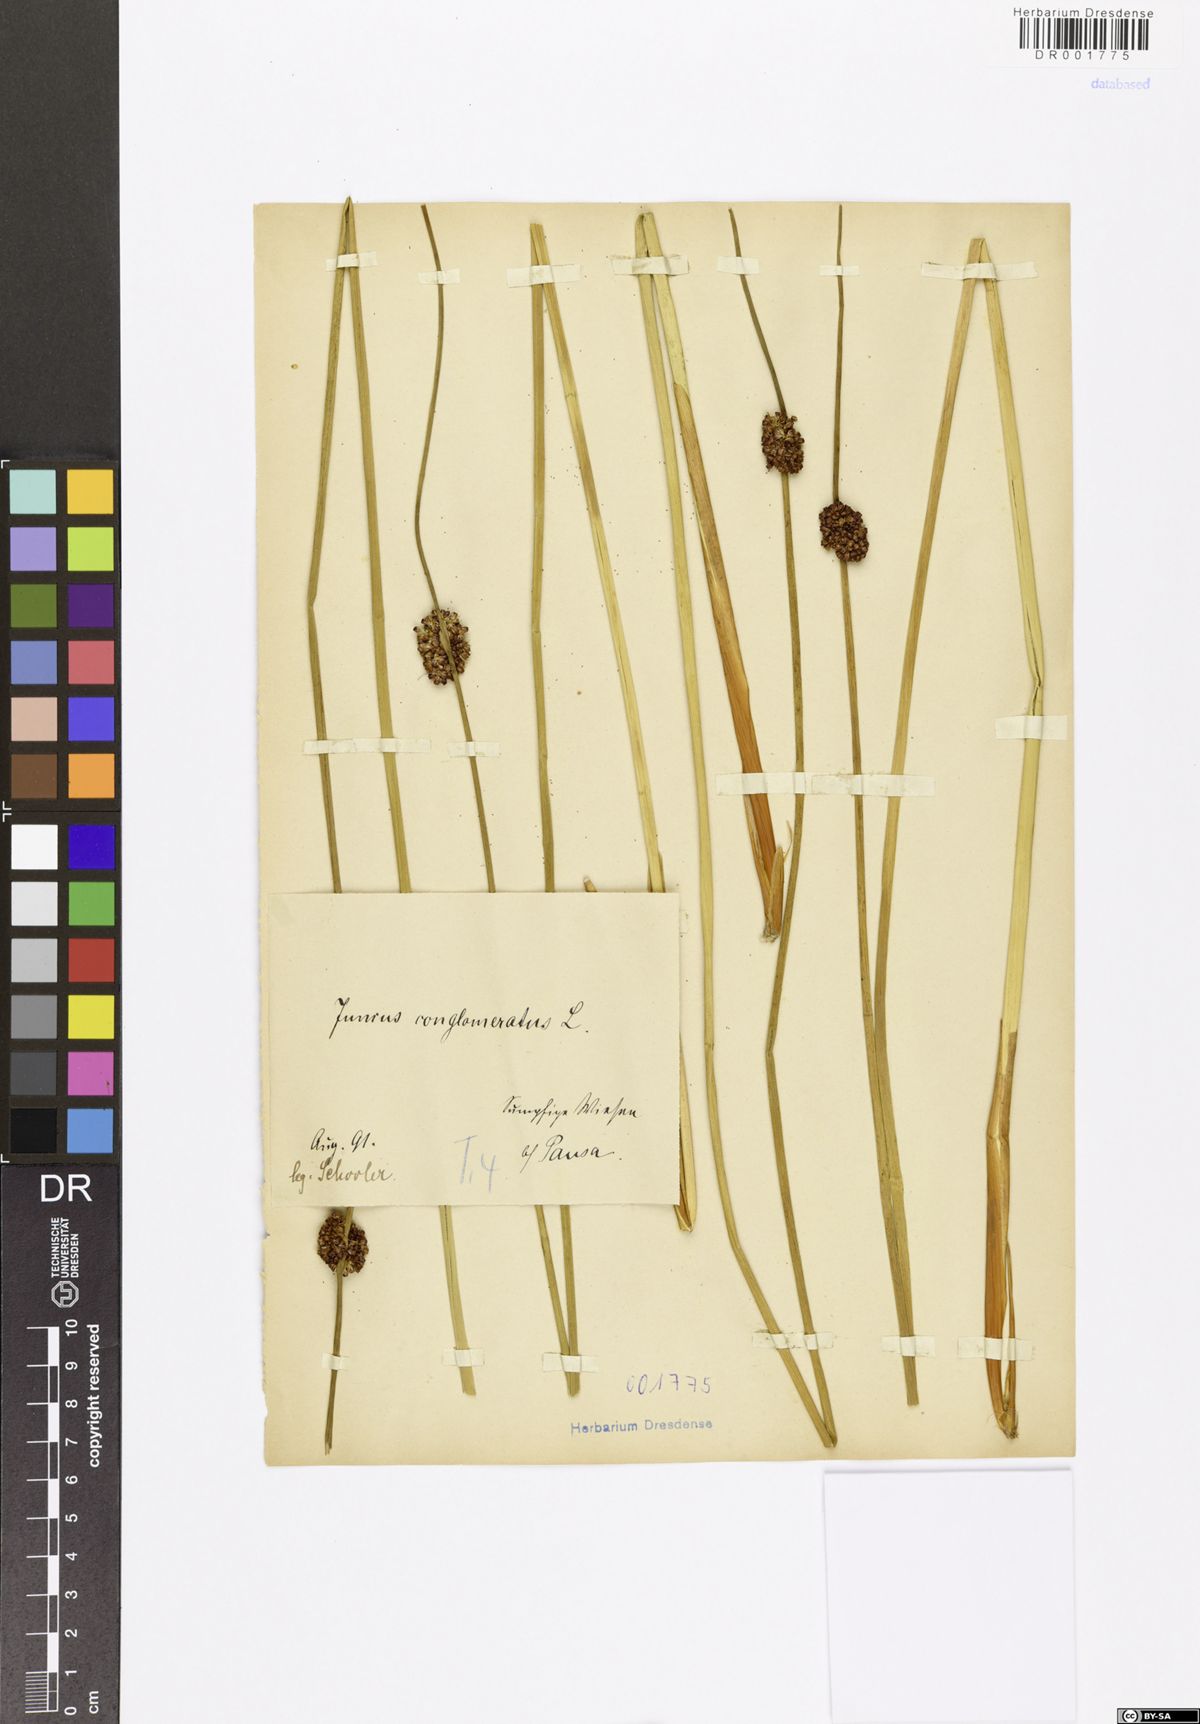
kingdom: Plantae
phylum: Tracheophyta
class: Liliopsida
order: Poales
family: Juncaceae
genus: Juncus
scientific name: Juncus conglomeratus
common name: Compact rush
